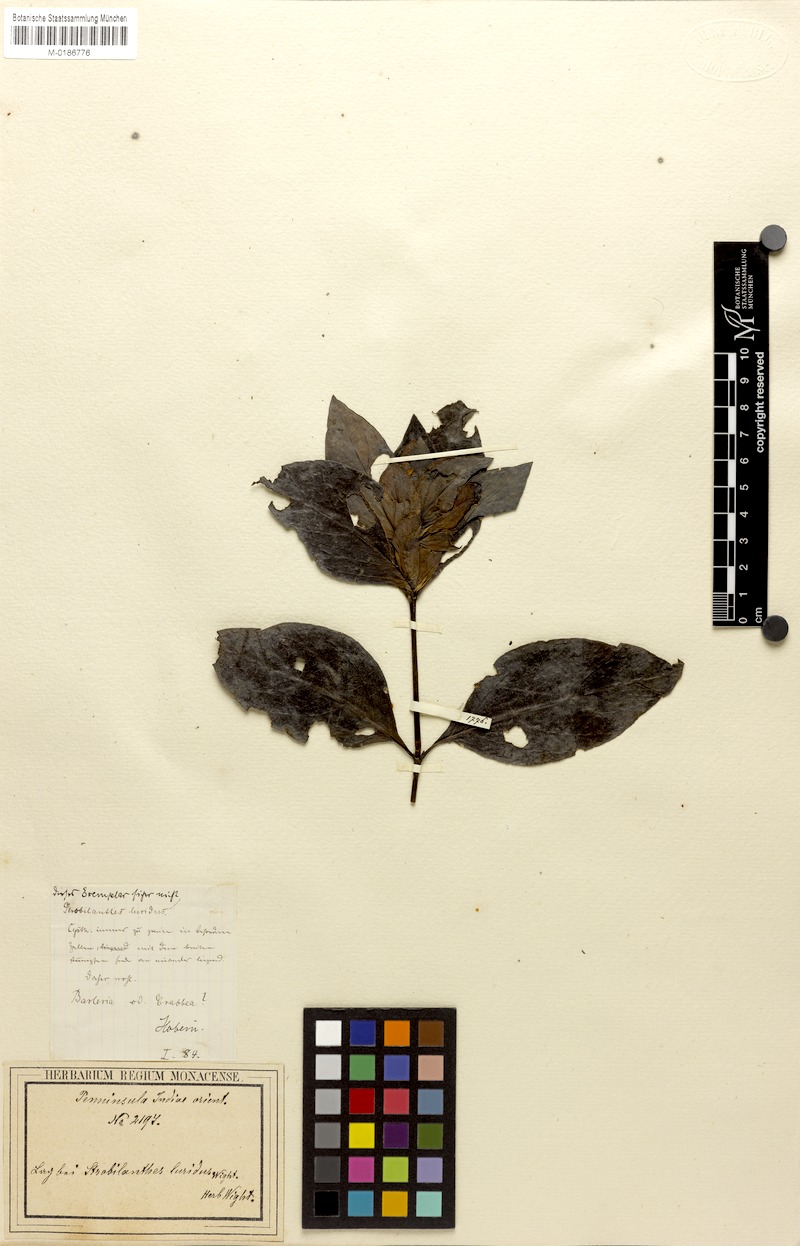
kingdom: Plantae
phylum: Tracheophyta
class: Magnoliopsida
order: Lamiales
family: Acanthaceae
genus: Strobilanthes
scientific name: Strobilanthes lurida
